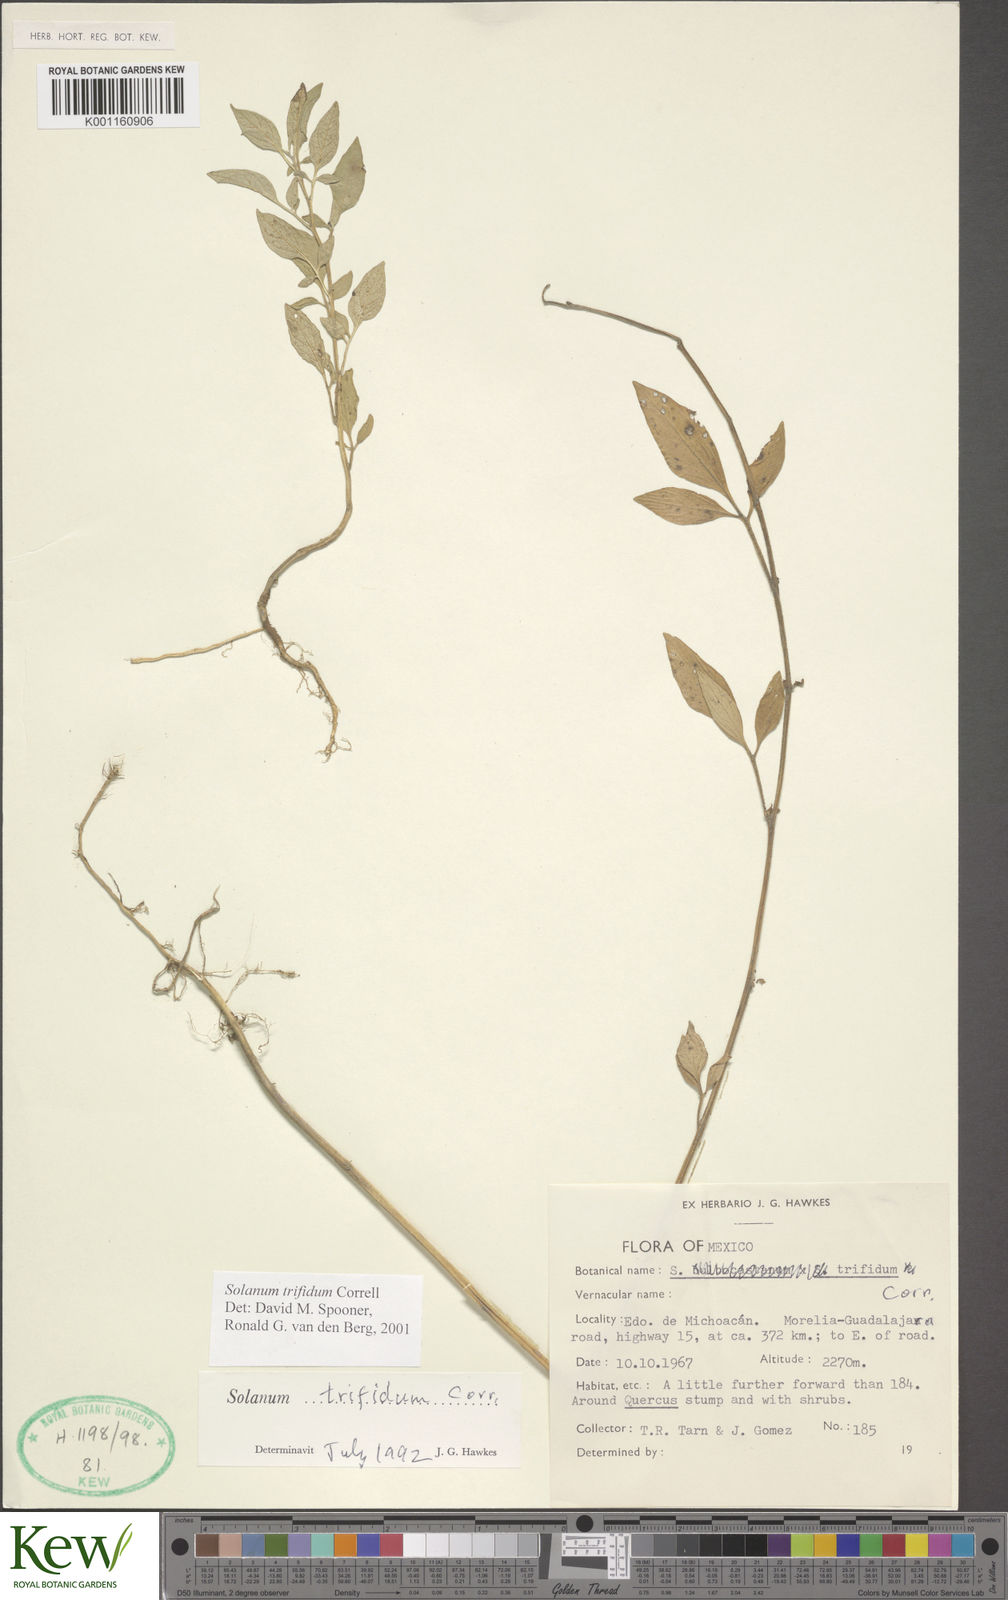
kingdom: Plantae
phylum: Tracheophyta
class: Magnoliopsida
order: Solanales
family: Solanaceae
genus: Solanum
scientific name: Solanum trifidum
